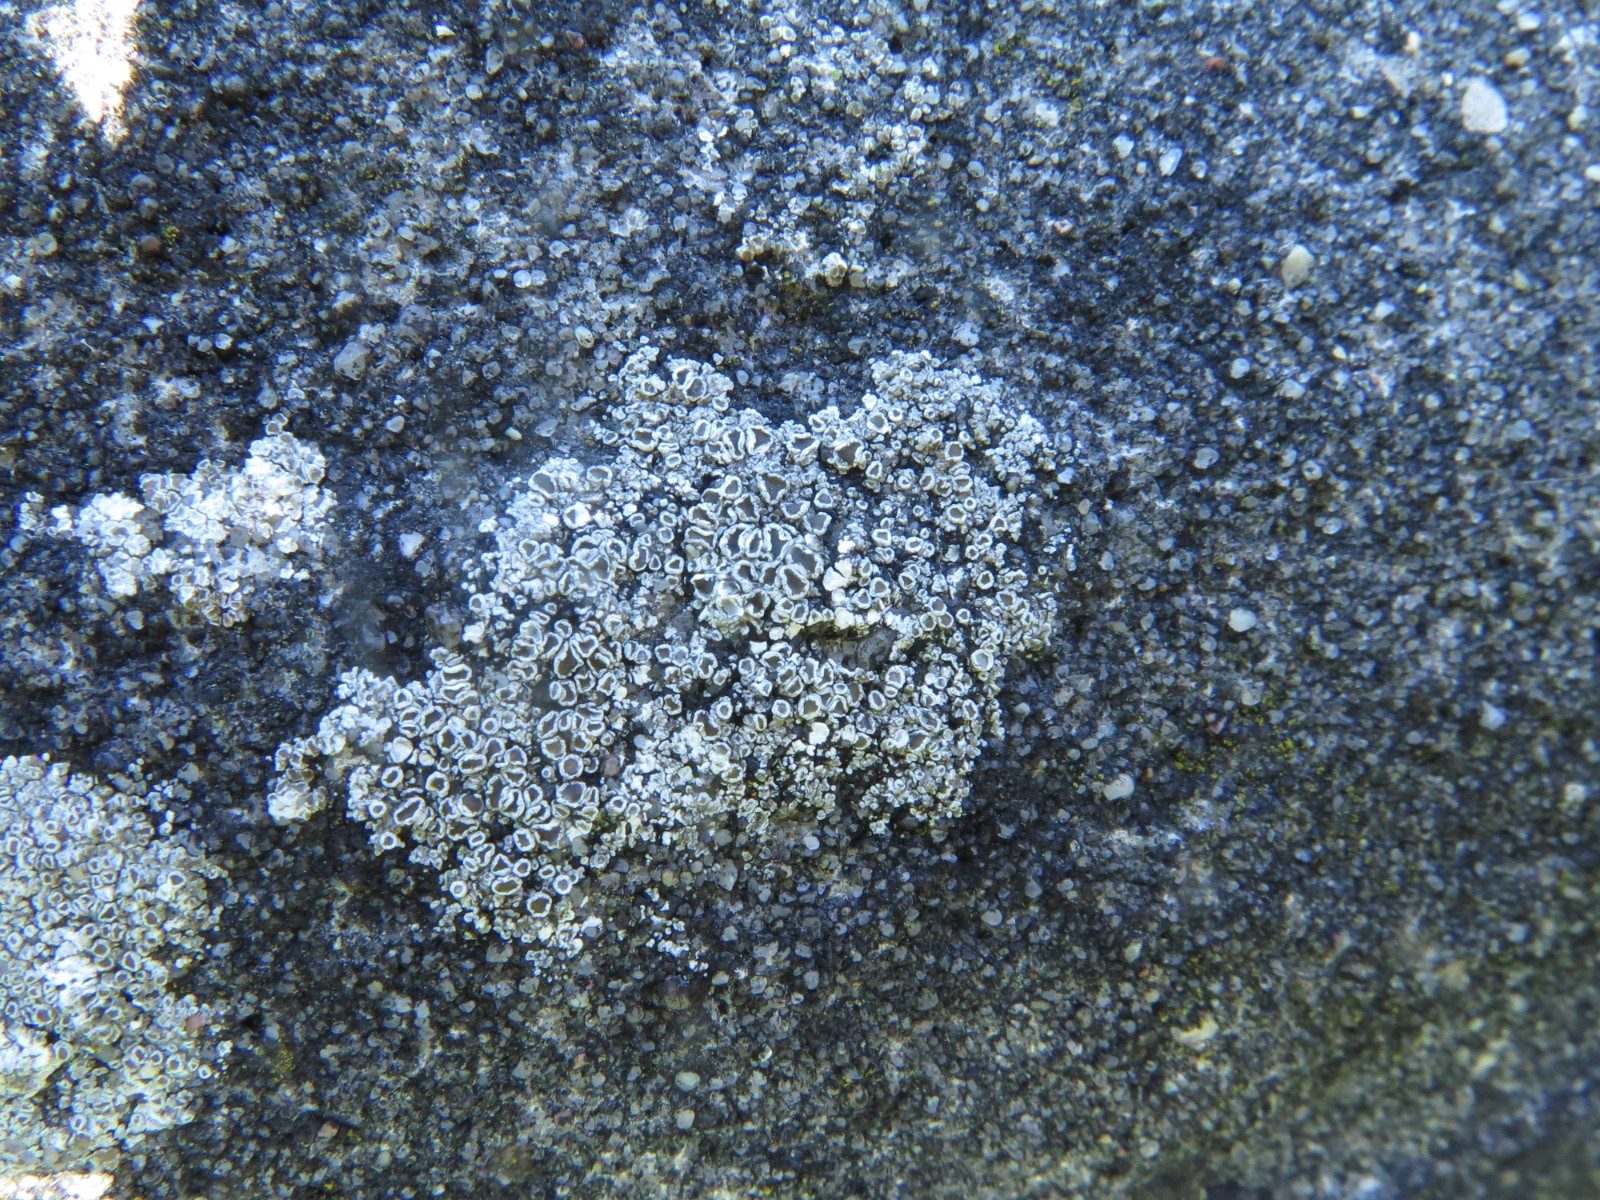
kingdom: Fungi
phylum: Ascomycota
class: Lecanoromycetes
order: Lecanorales
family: Lecanoraceae
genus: Polyozosia
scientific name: Polyozosia dispersa
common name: spredt kantskivelav
